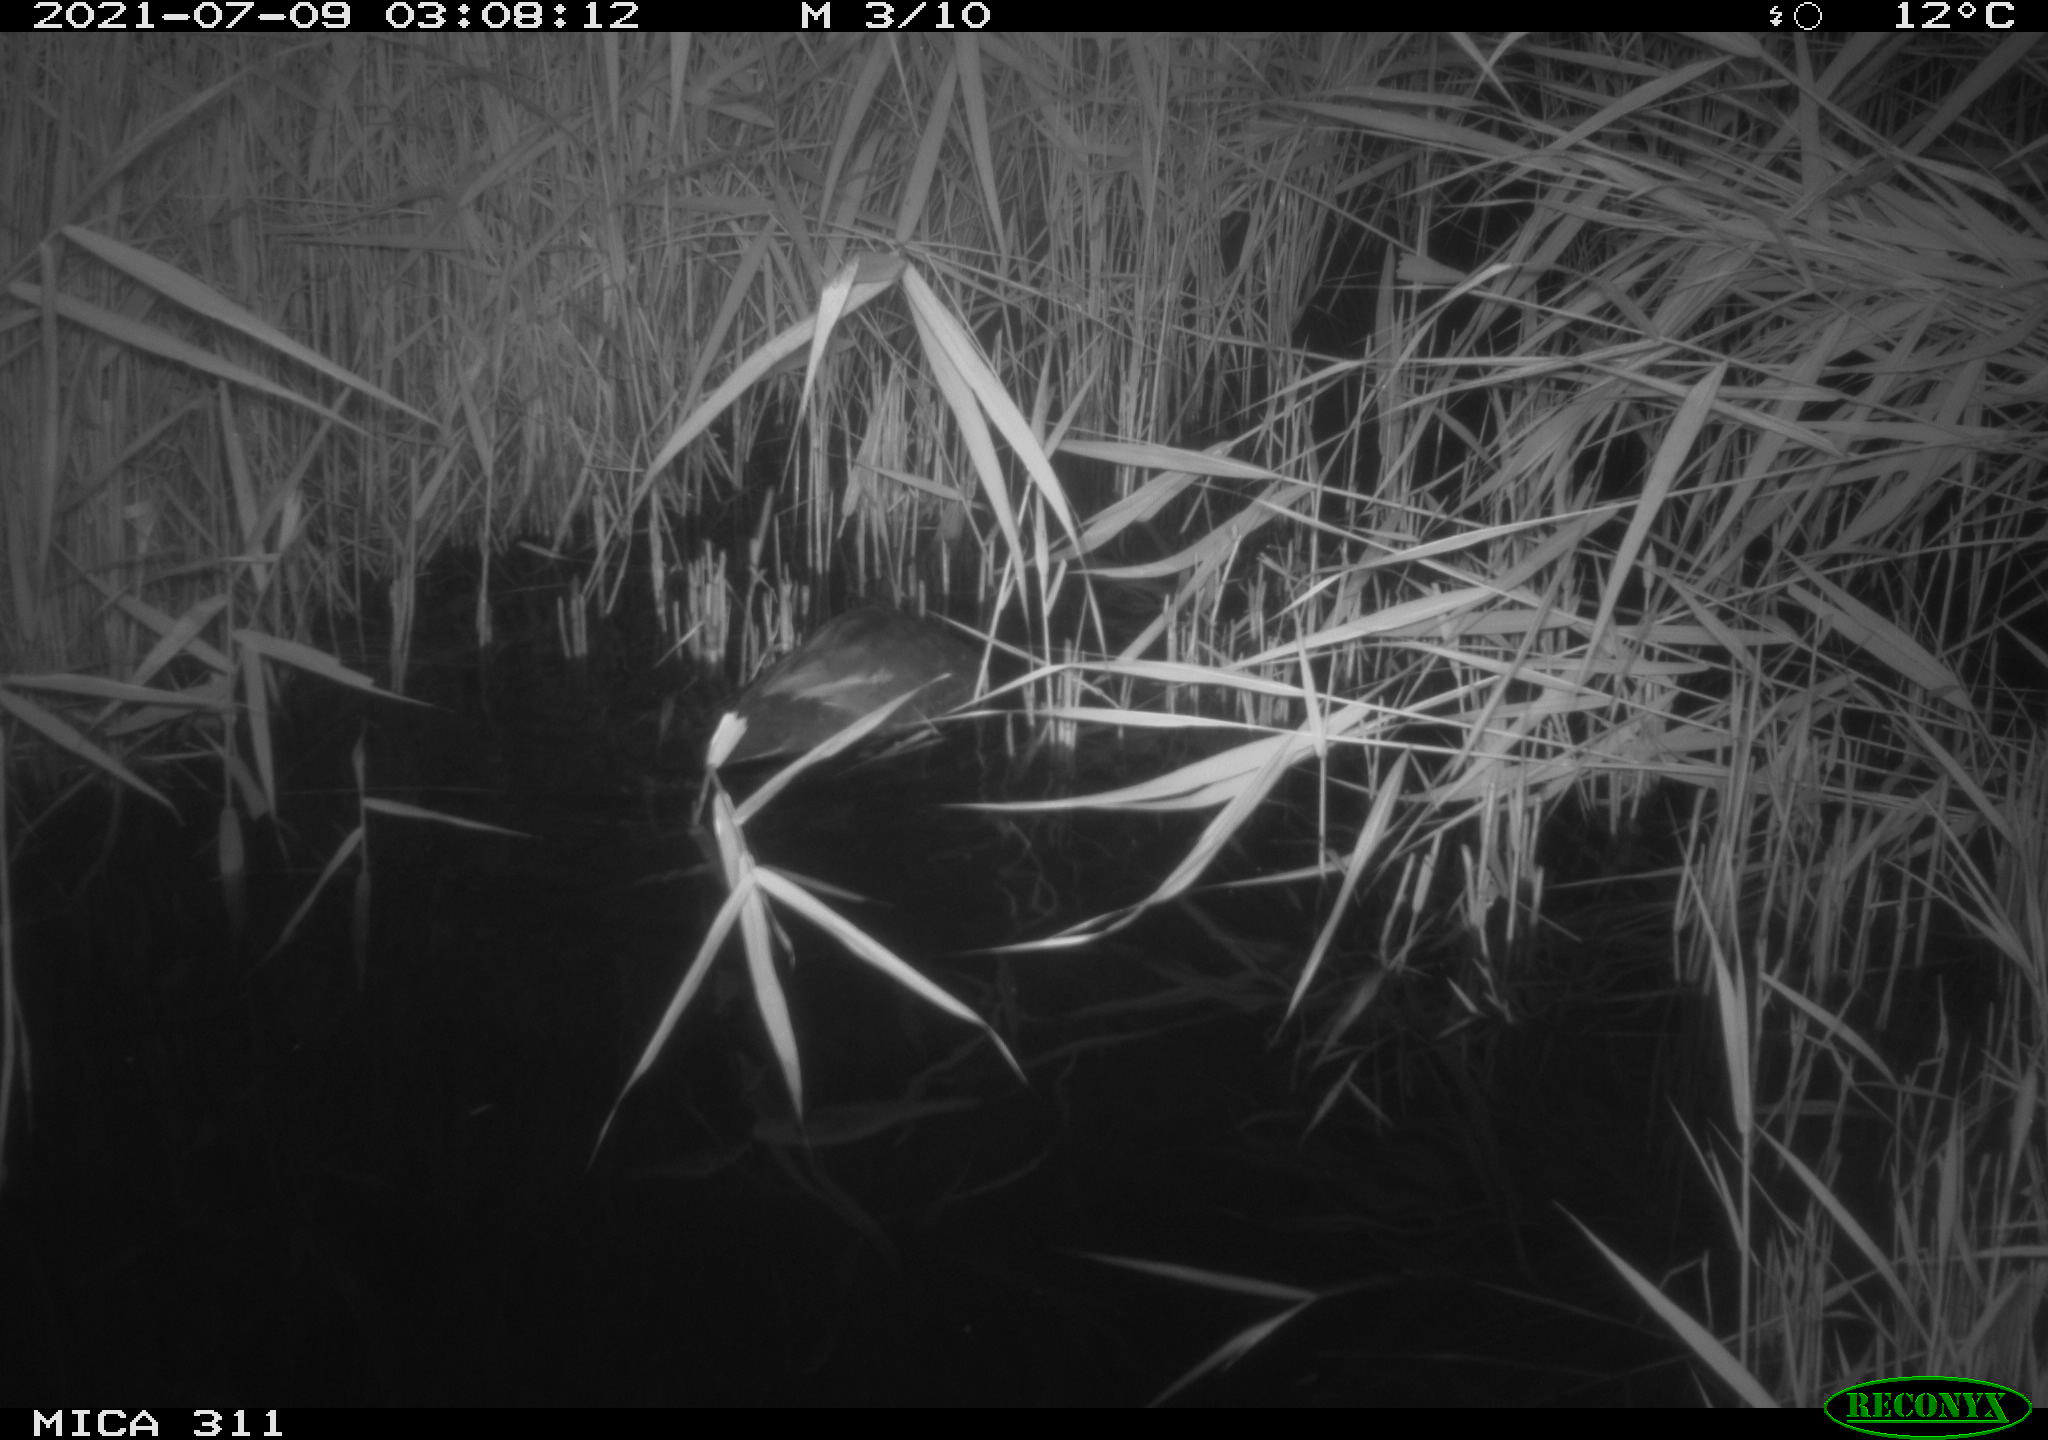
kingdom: Animalia
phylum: Chordata
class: Aves
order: Gruiformes
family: Rallidae
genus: Gallinula
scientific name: Gallinula chloropus
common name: Common moorhen
